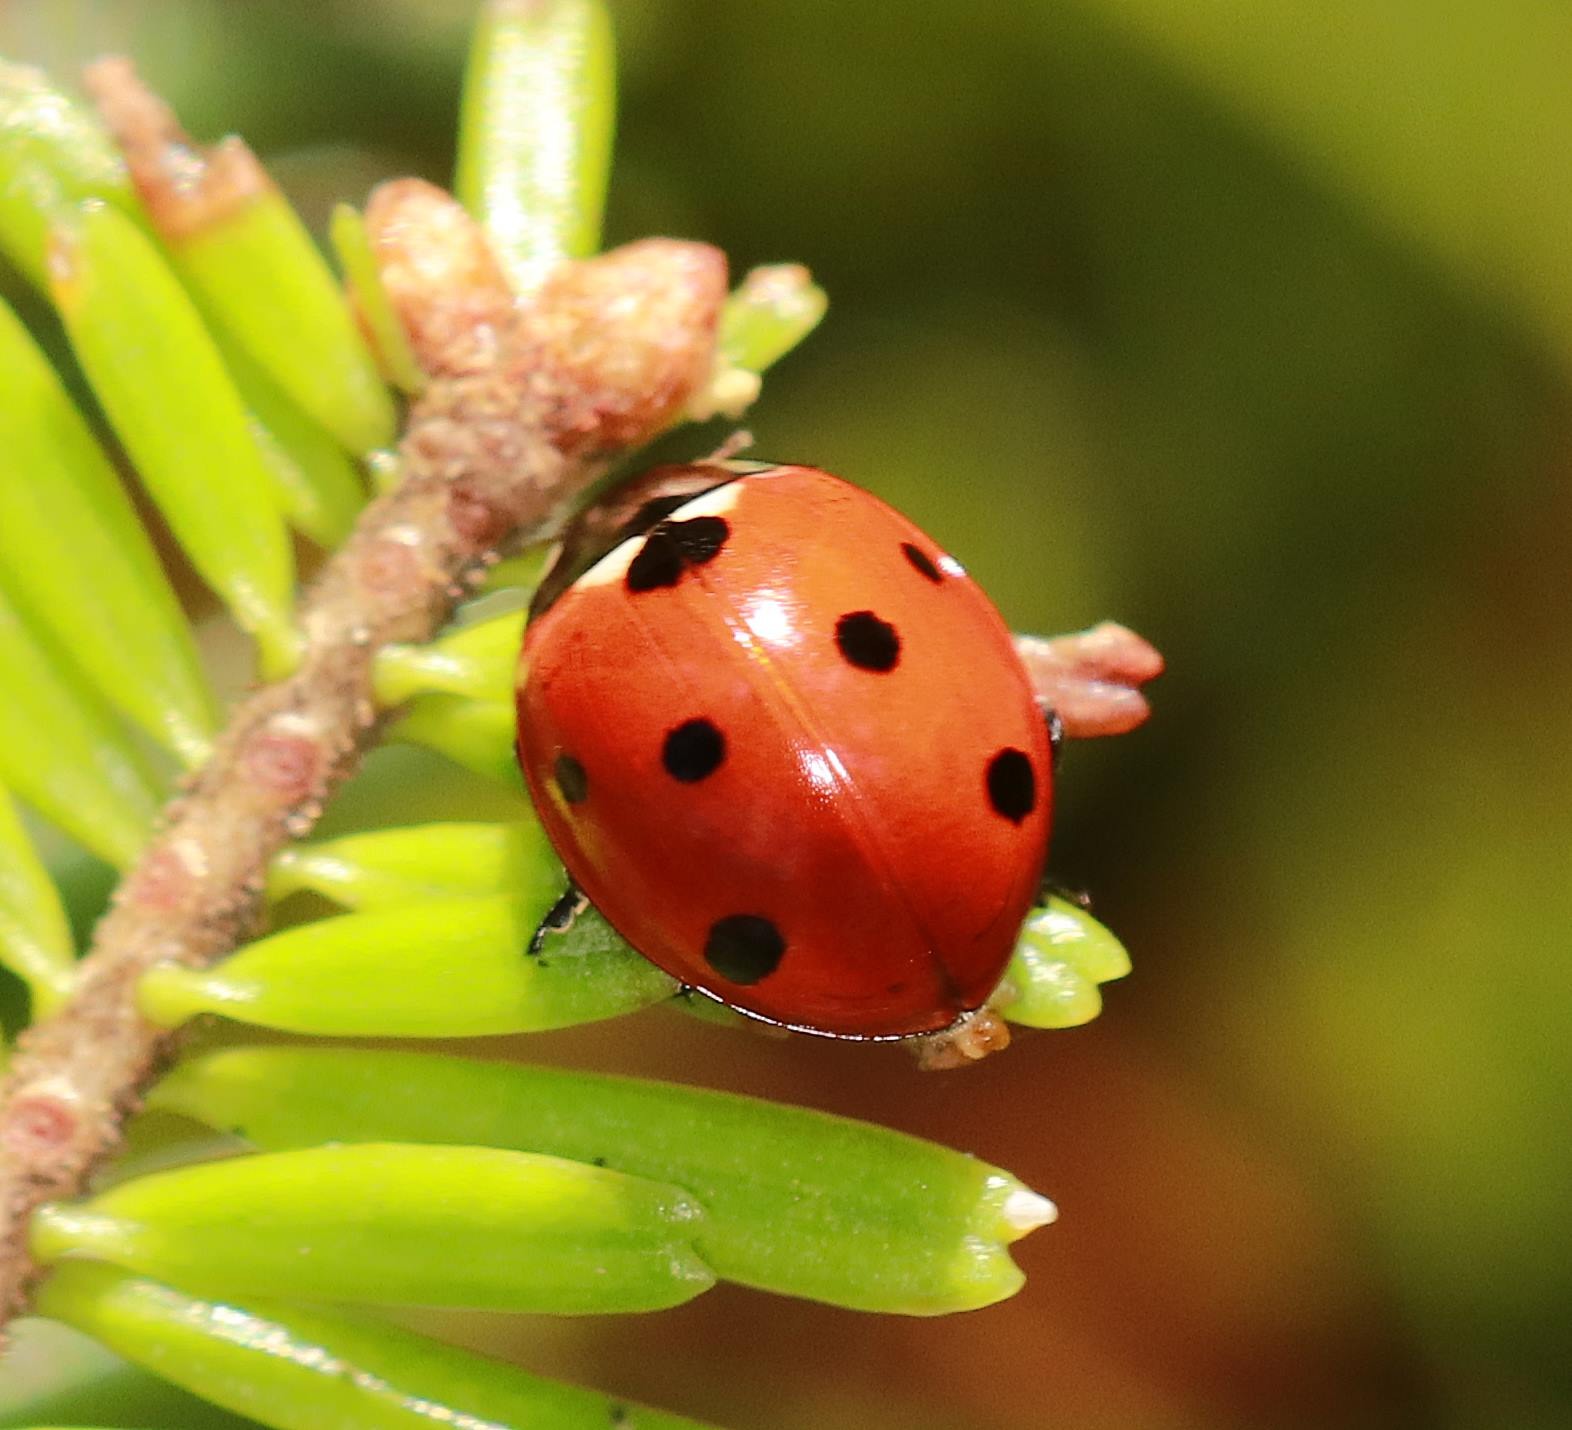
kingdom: Animalia
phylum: Arthropoda
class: Insecta
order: Coleoptera
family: Coccinellidae
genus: Coccinella
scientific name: Coccinella septempunctata
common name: Syvplettet mariehøne
